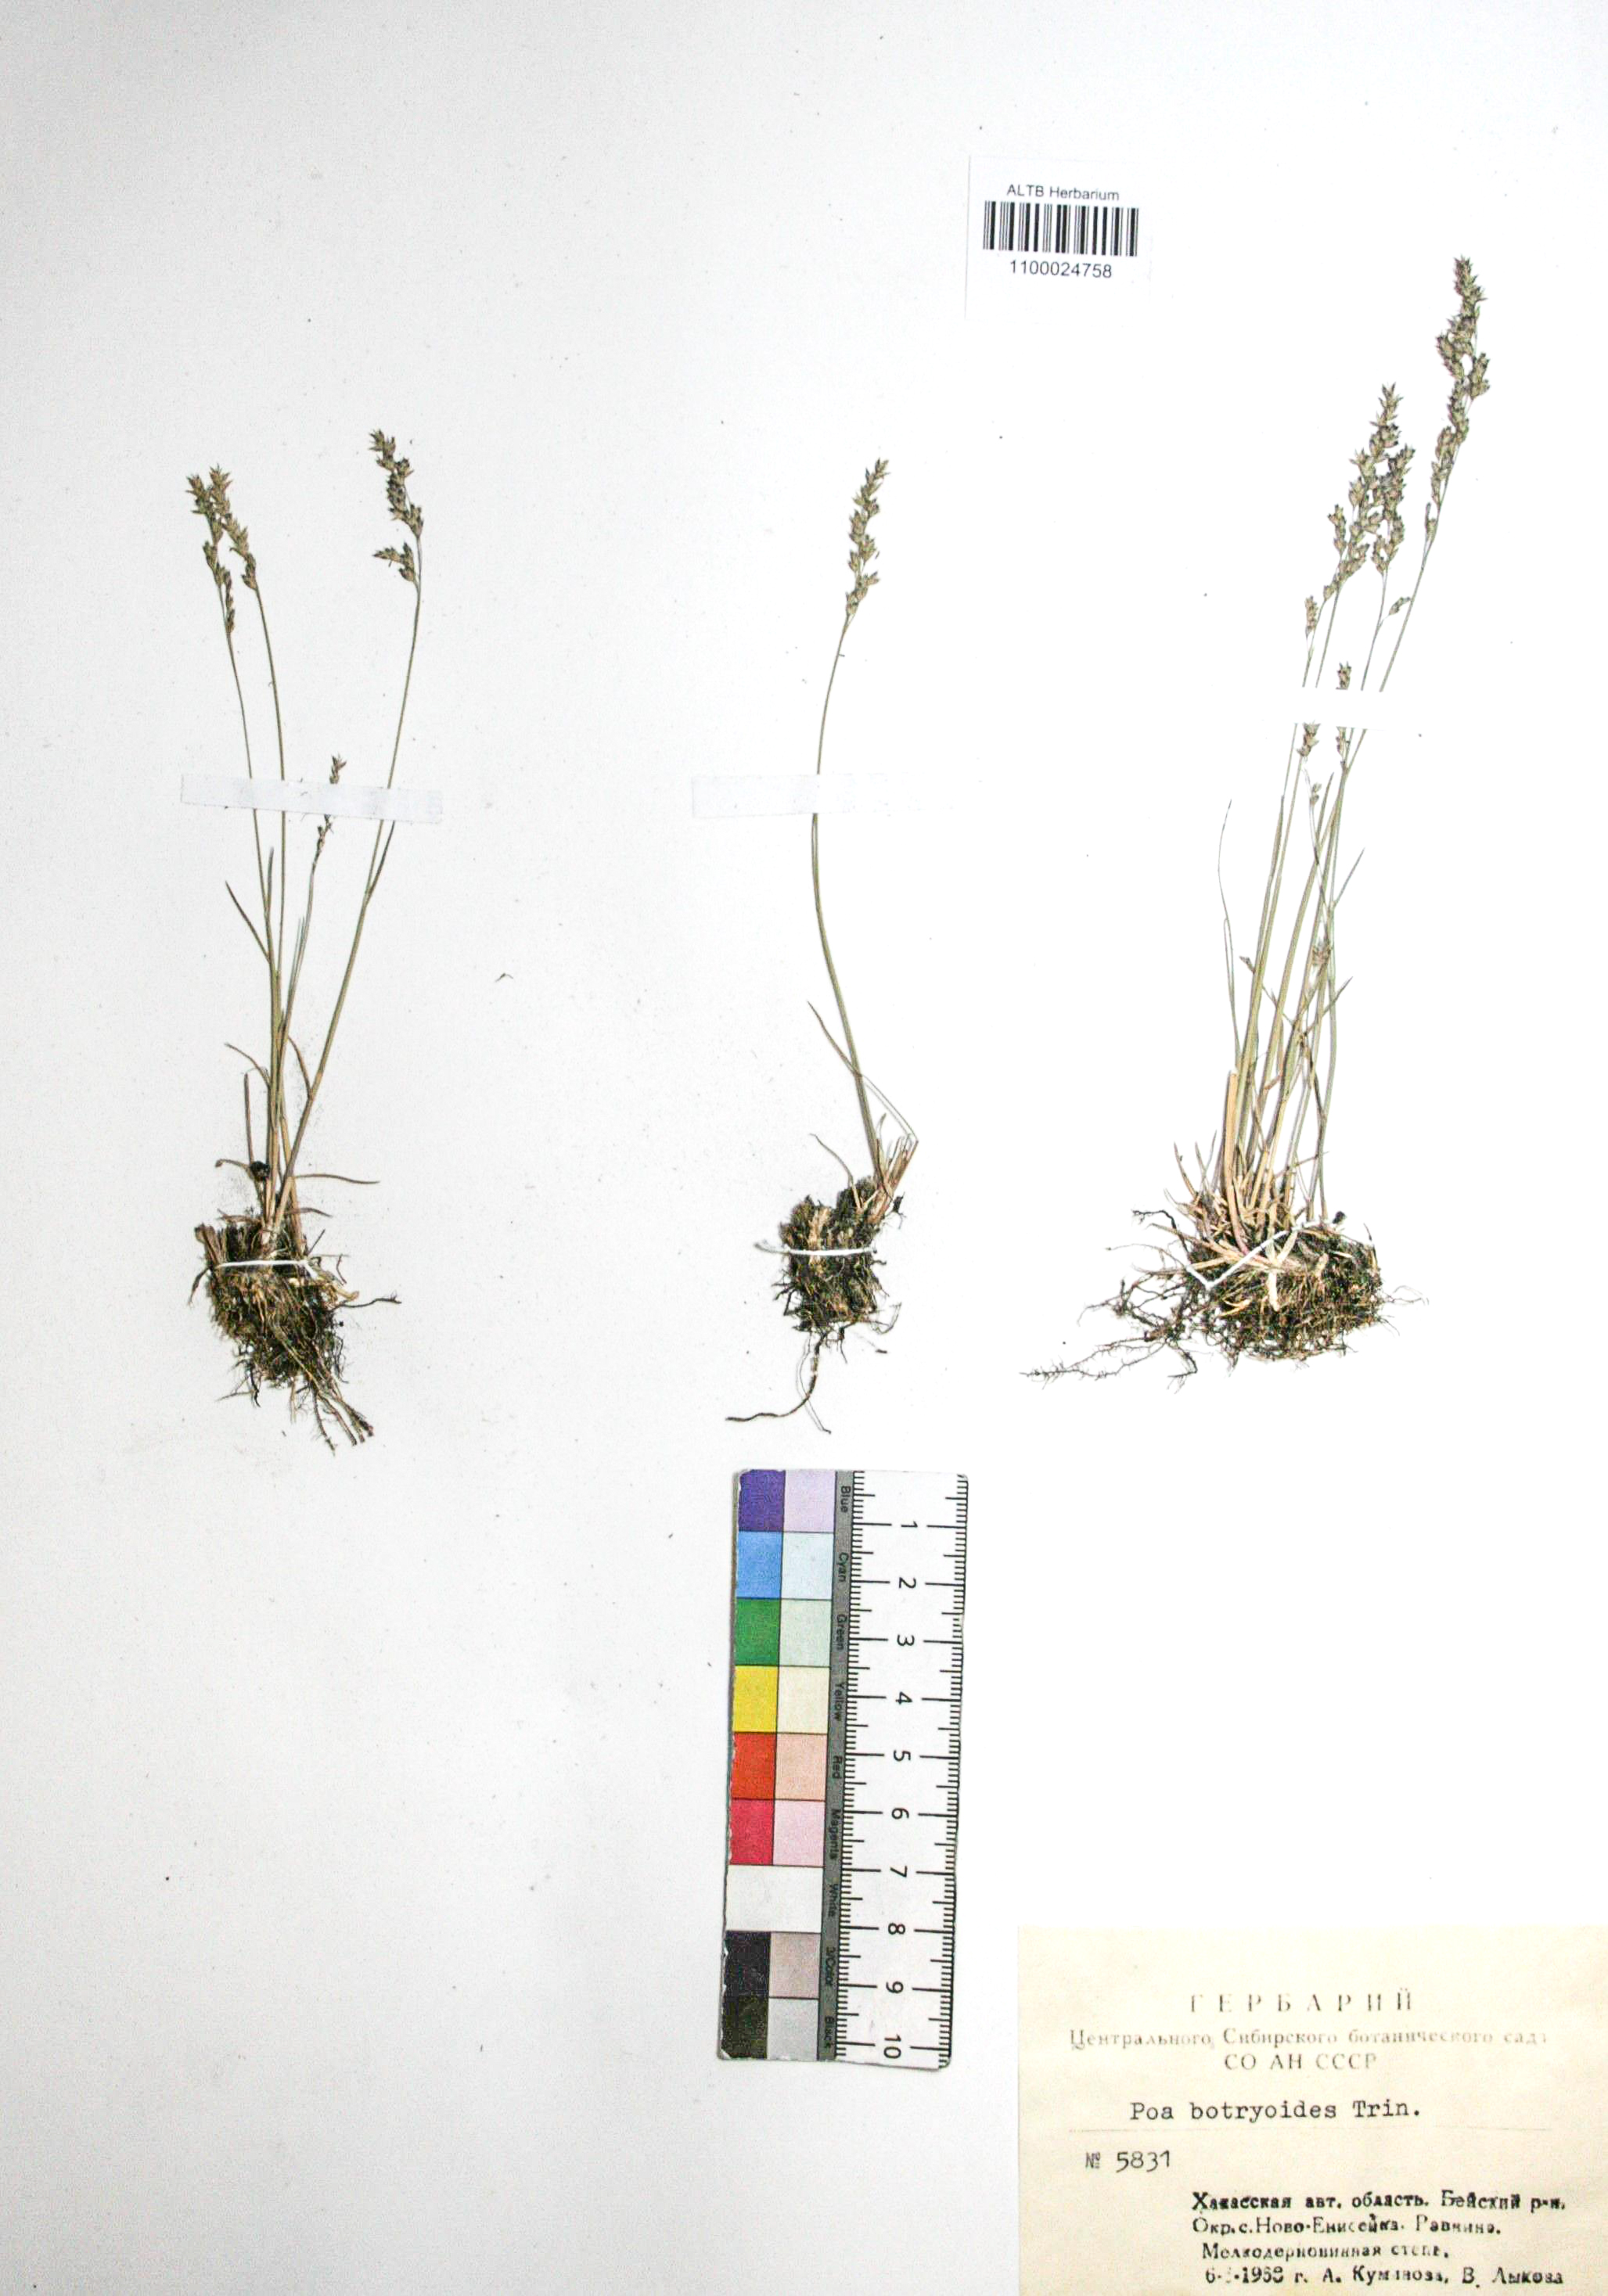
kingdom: Plantae
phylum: Tracheophyta
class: Liliopsida
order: Poales
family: Poaceae
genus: Poa
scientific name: Poa attenuata
